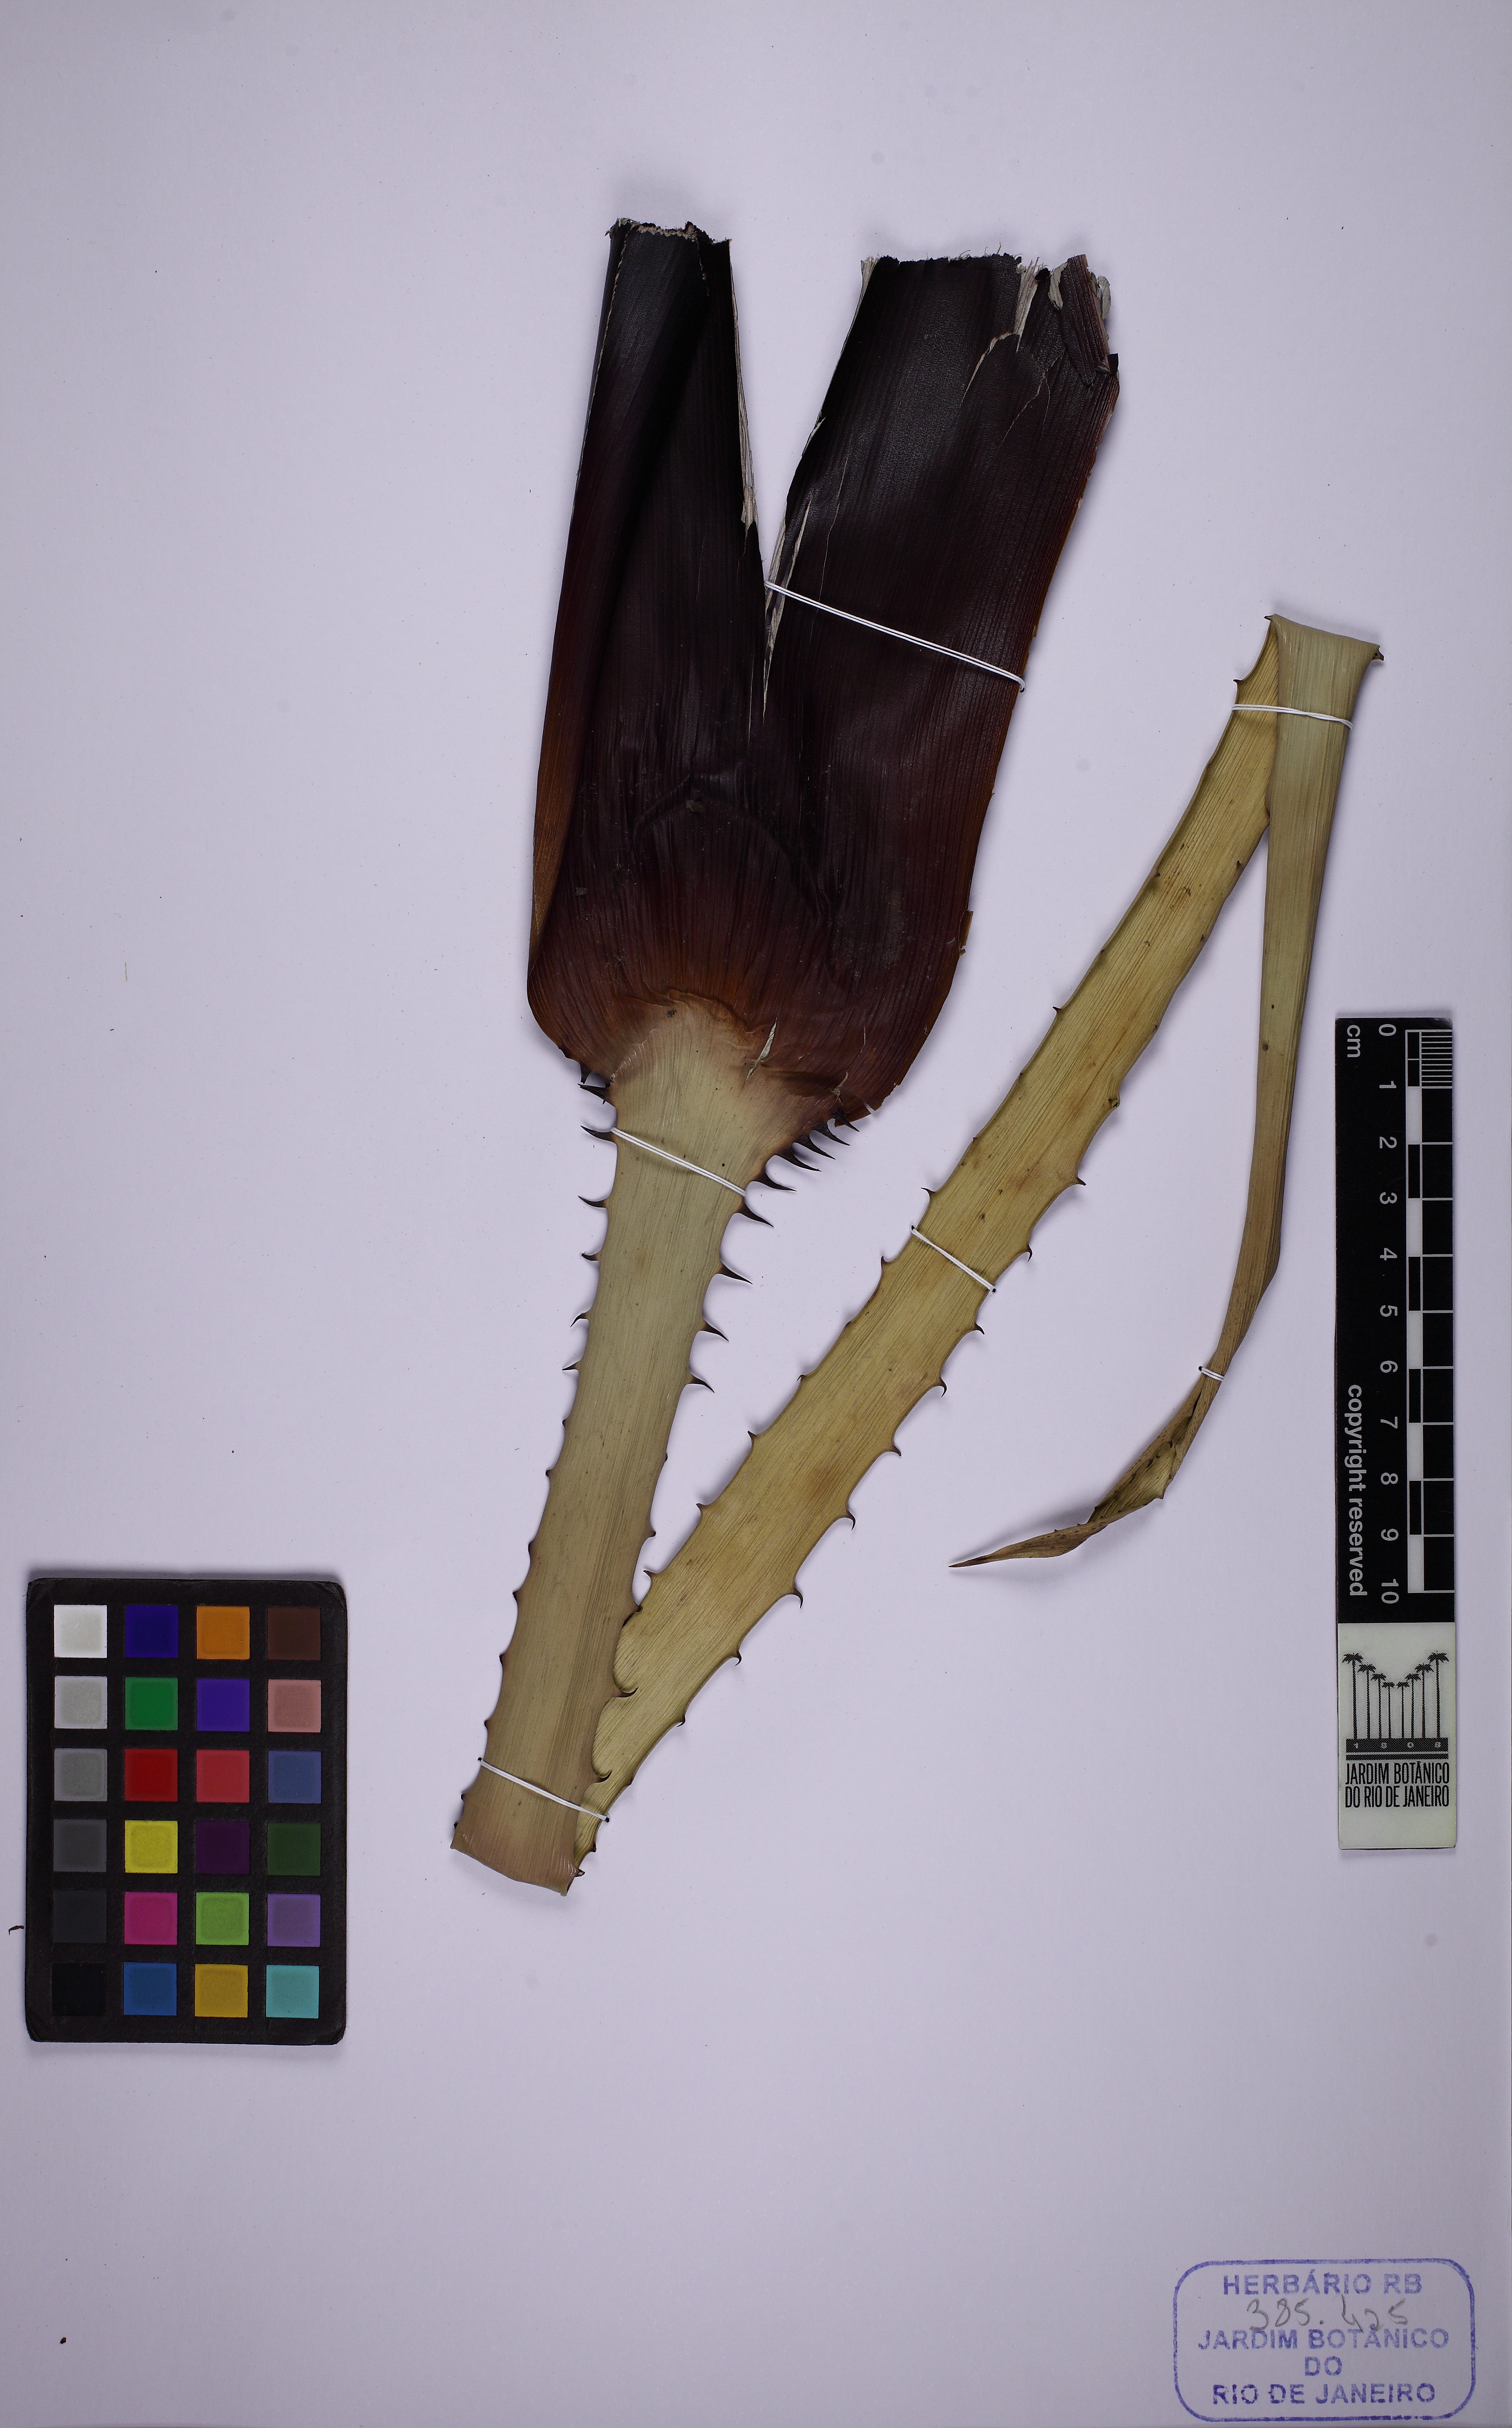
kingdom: Plantae
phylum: Tracheophyta
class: Liliopsida
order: Poales
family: Bromeliaceae
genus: Aechmea
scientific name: Aechmea
